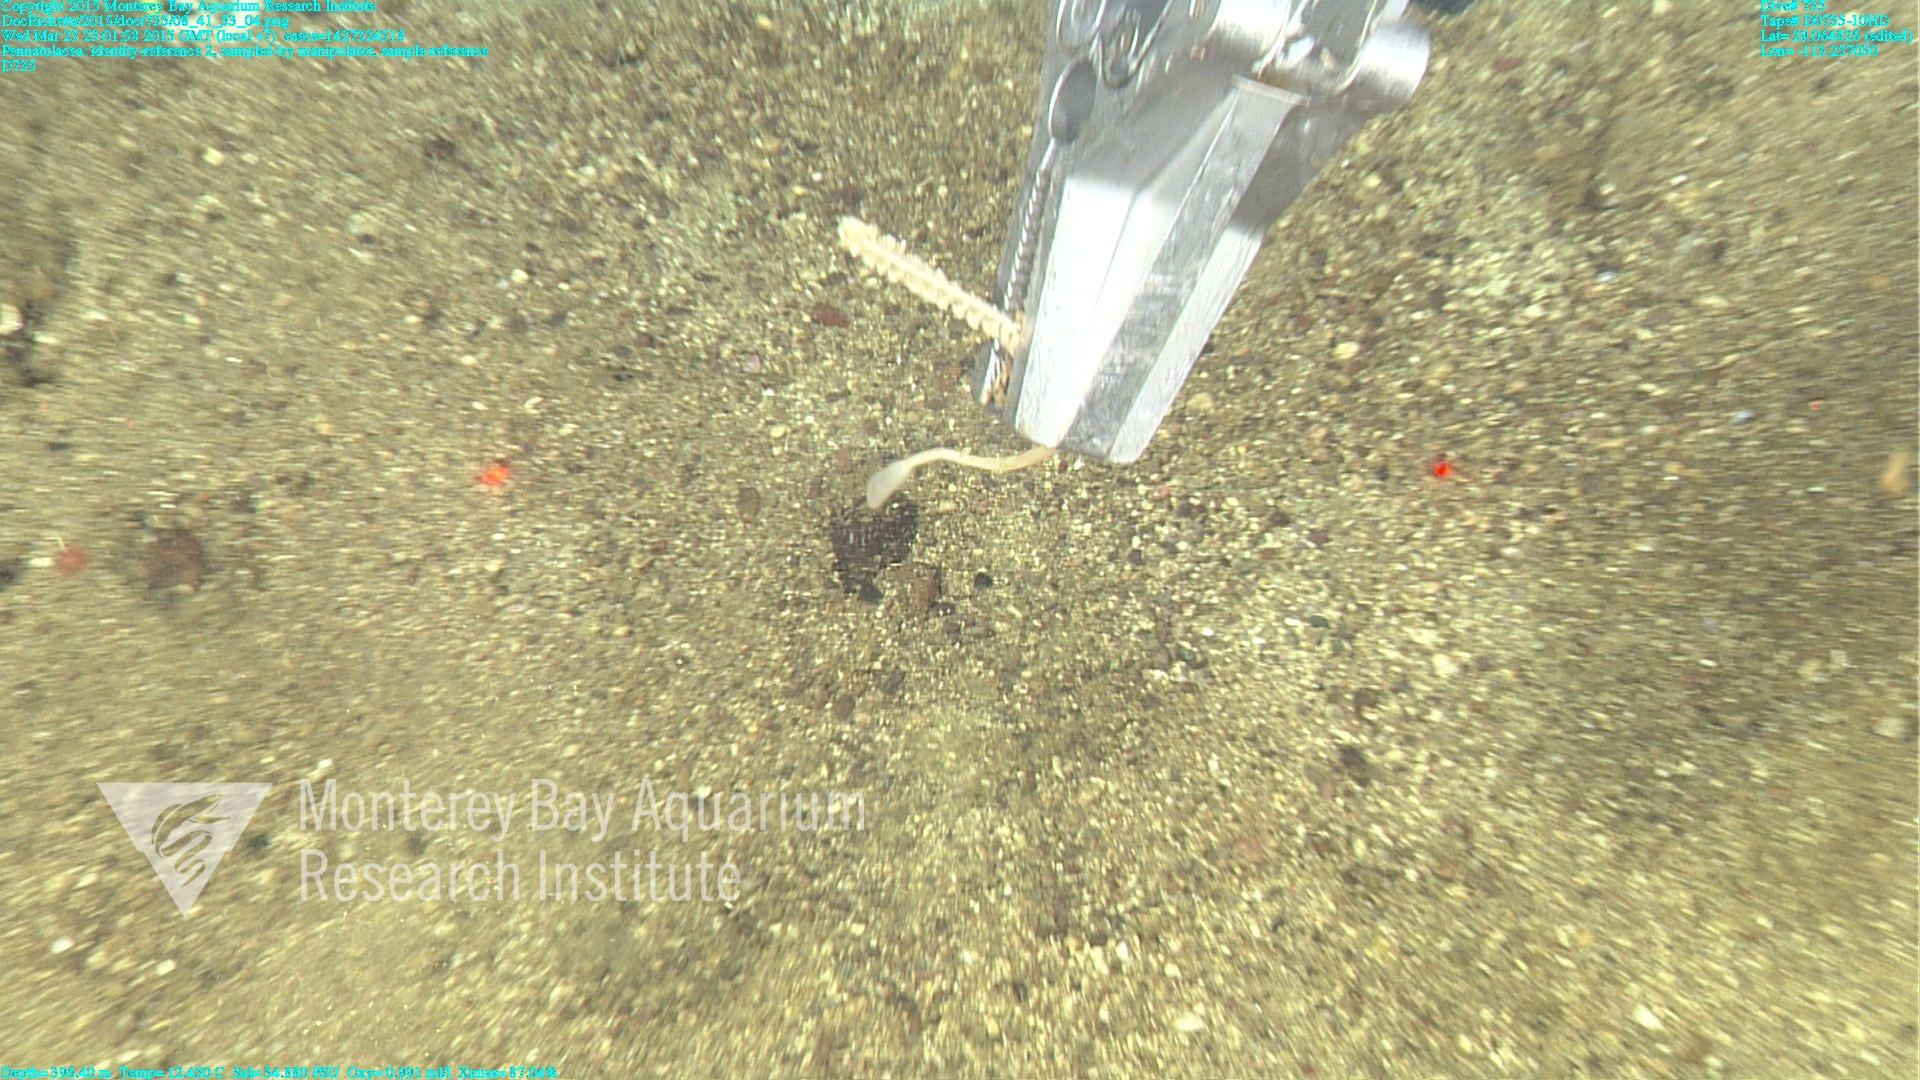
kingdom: Animalia
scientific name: Animalia
